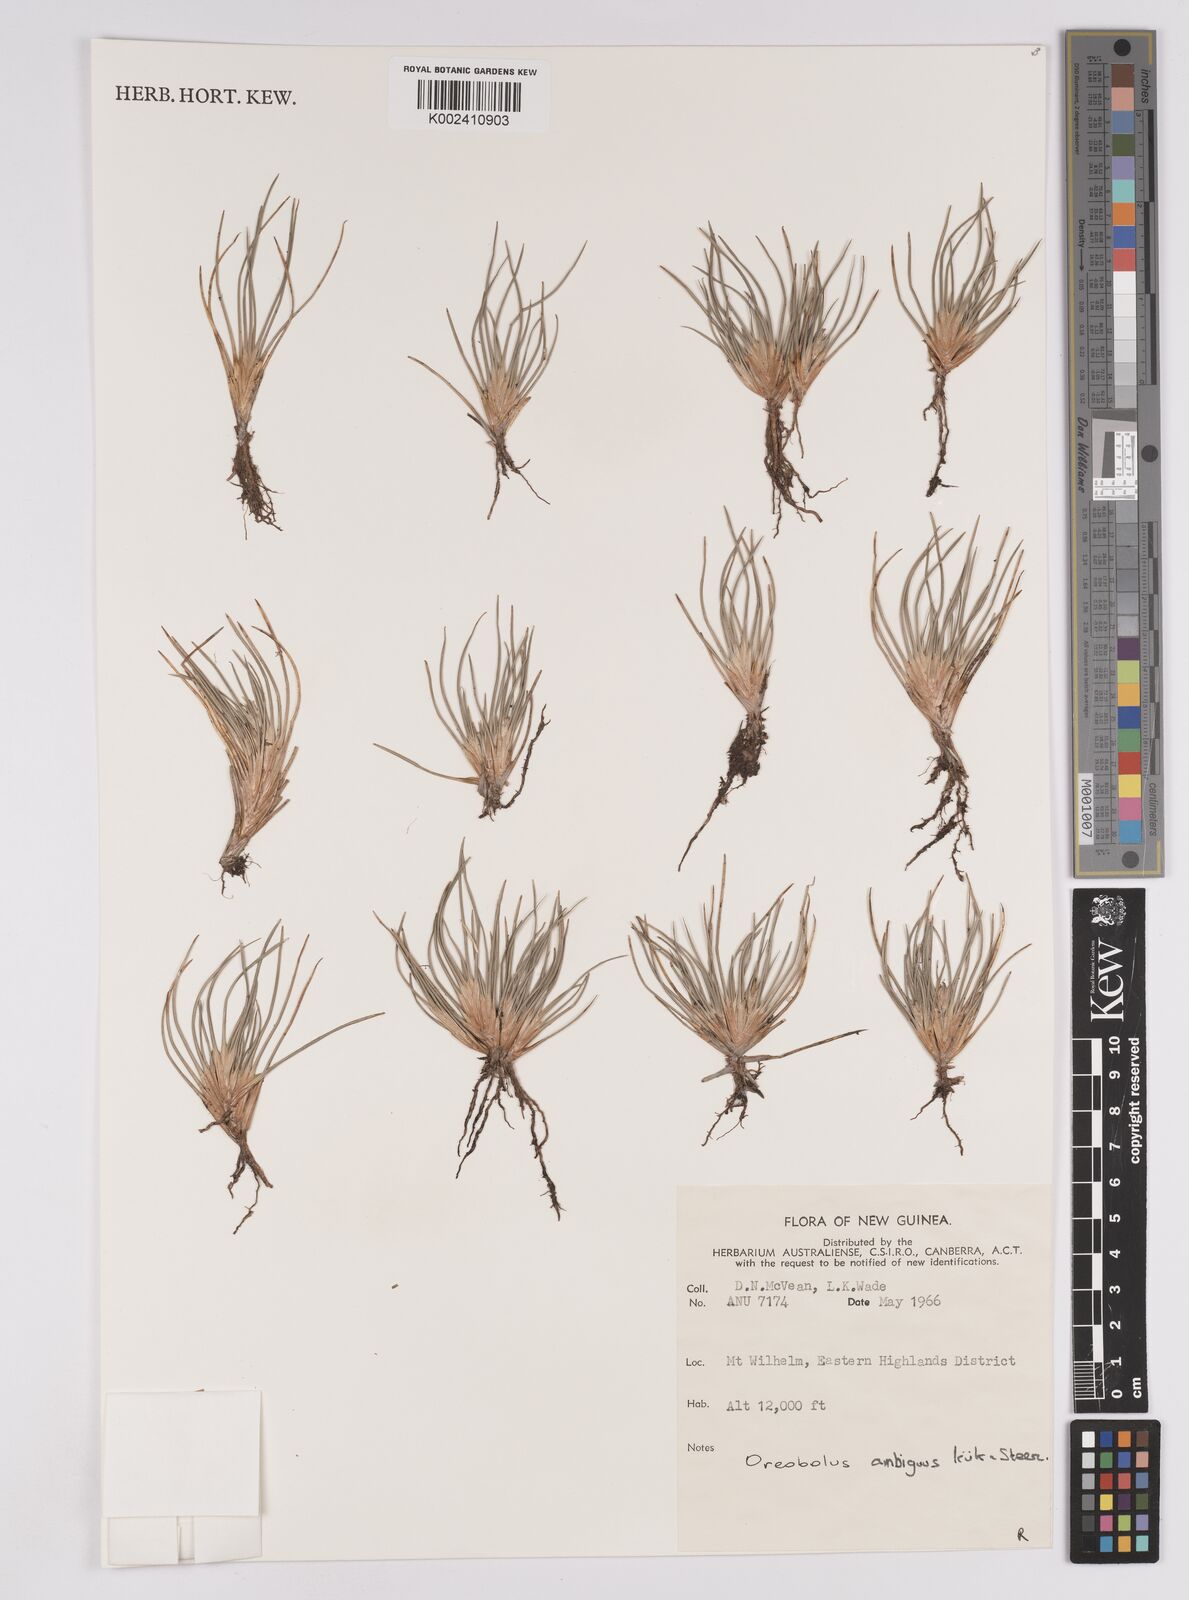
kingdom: Plantae
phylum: Tracheophyta
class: Liliopsida
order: Poales
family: Cyperaceae
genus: Oreobolus
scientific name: Oreobolus ambiguus
